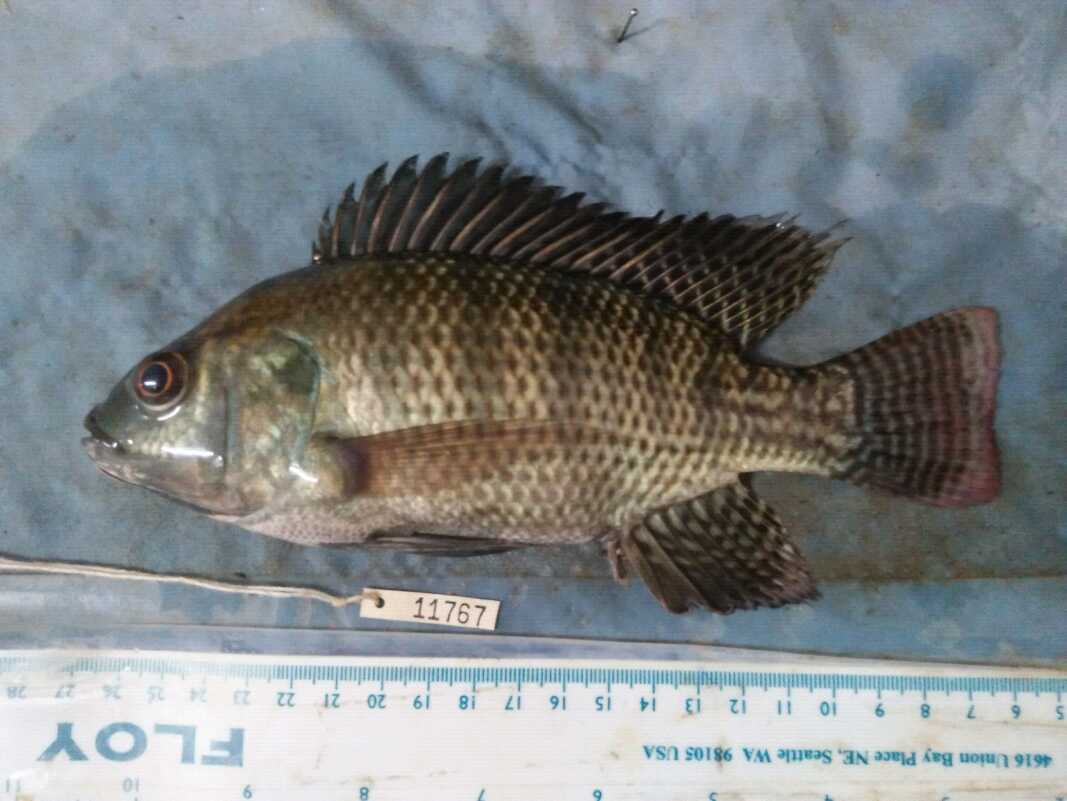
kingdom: Animalia
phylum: Chordata
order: Perciformes
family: Cichlidae
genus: Oreochromis
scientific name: Oreochromis niloticus
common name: Nile tilapia
